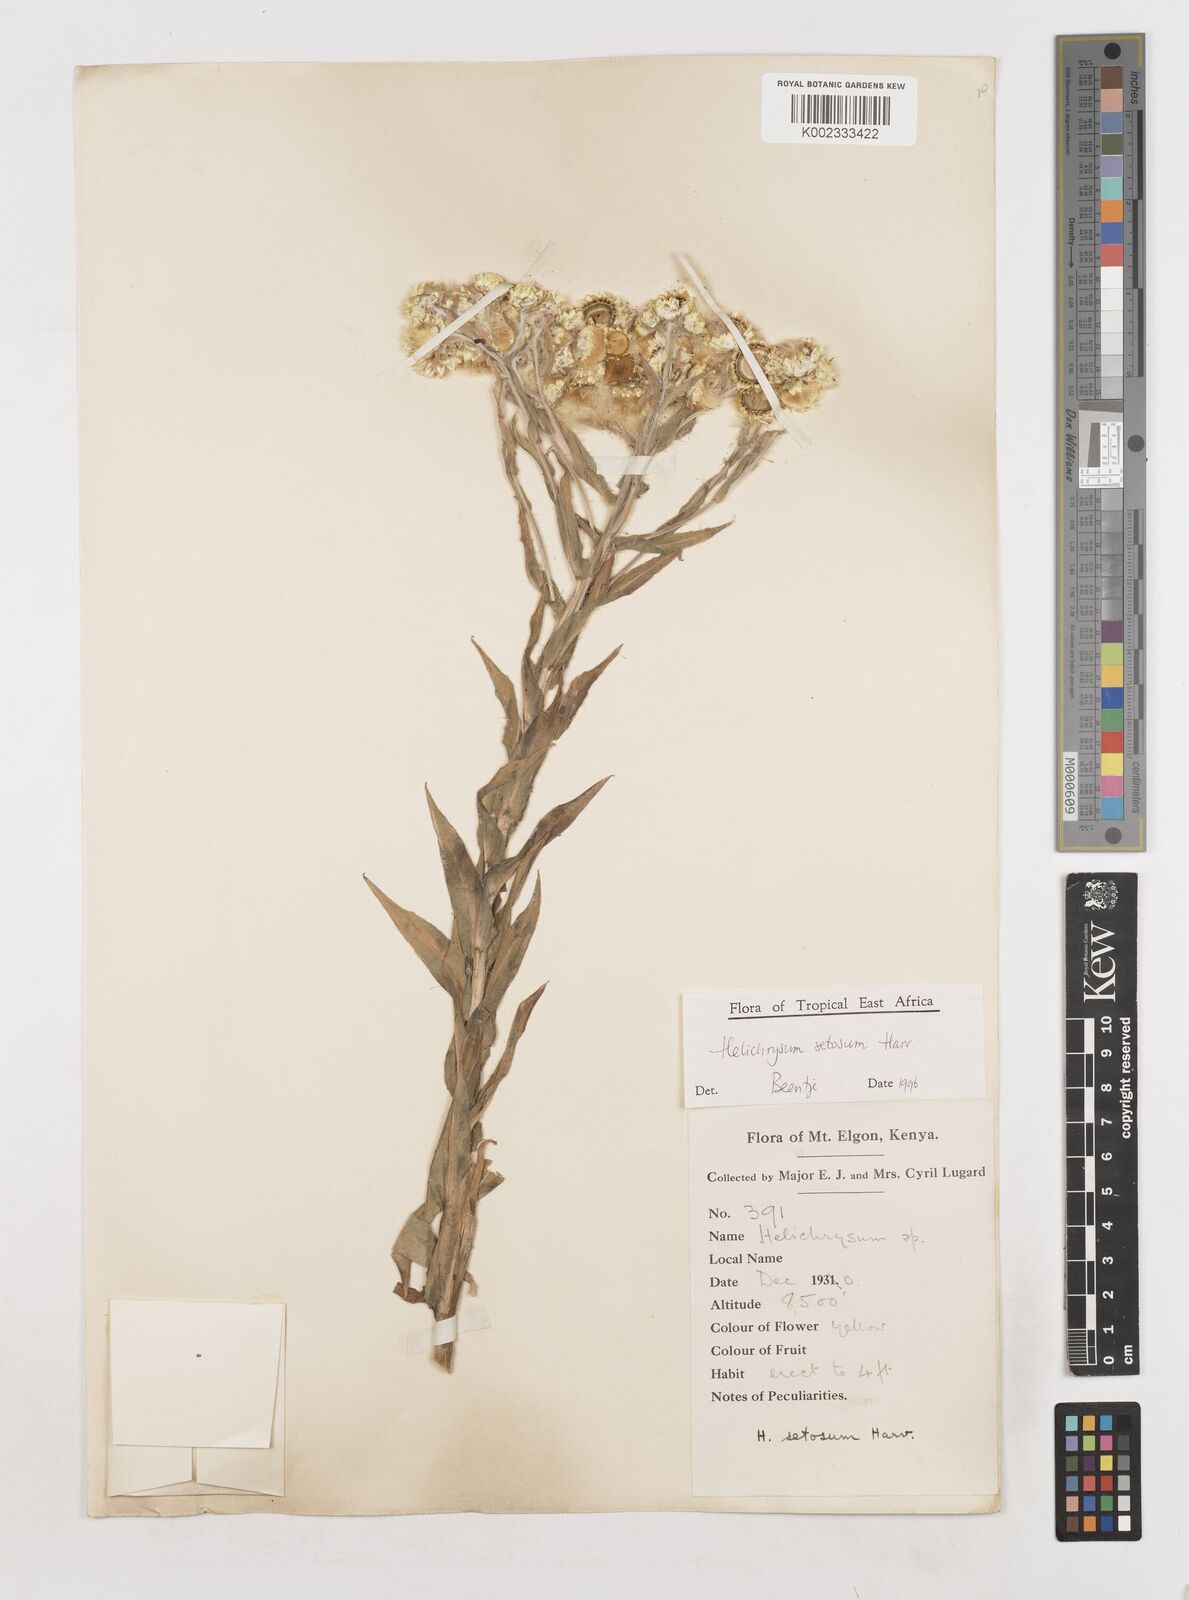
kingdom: Plantae
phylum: Tracheophyta
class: Magnoliopsida
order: Asterales
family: Asteraceae
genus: Helichrysum
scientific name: Helichrysum setosum
